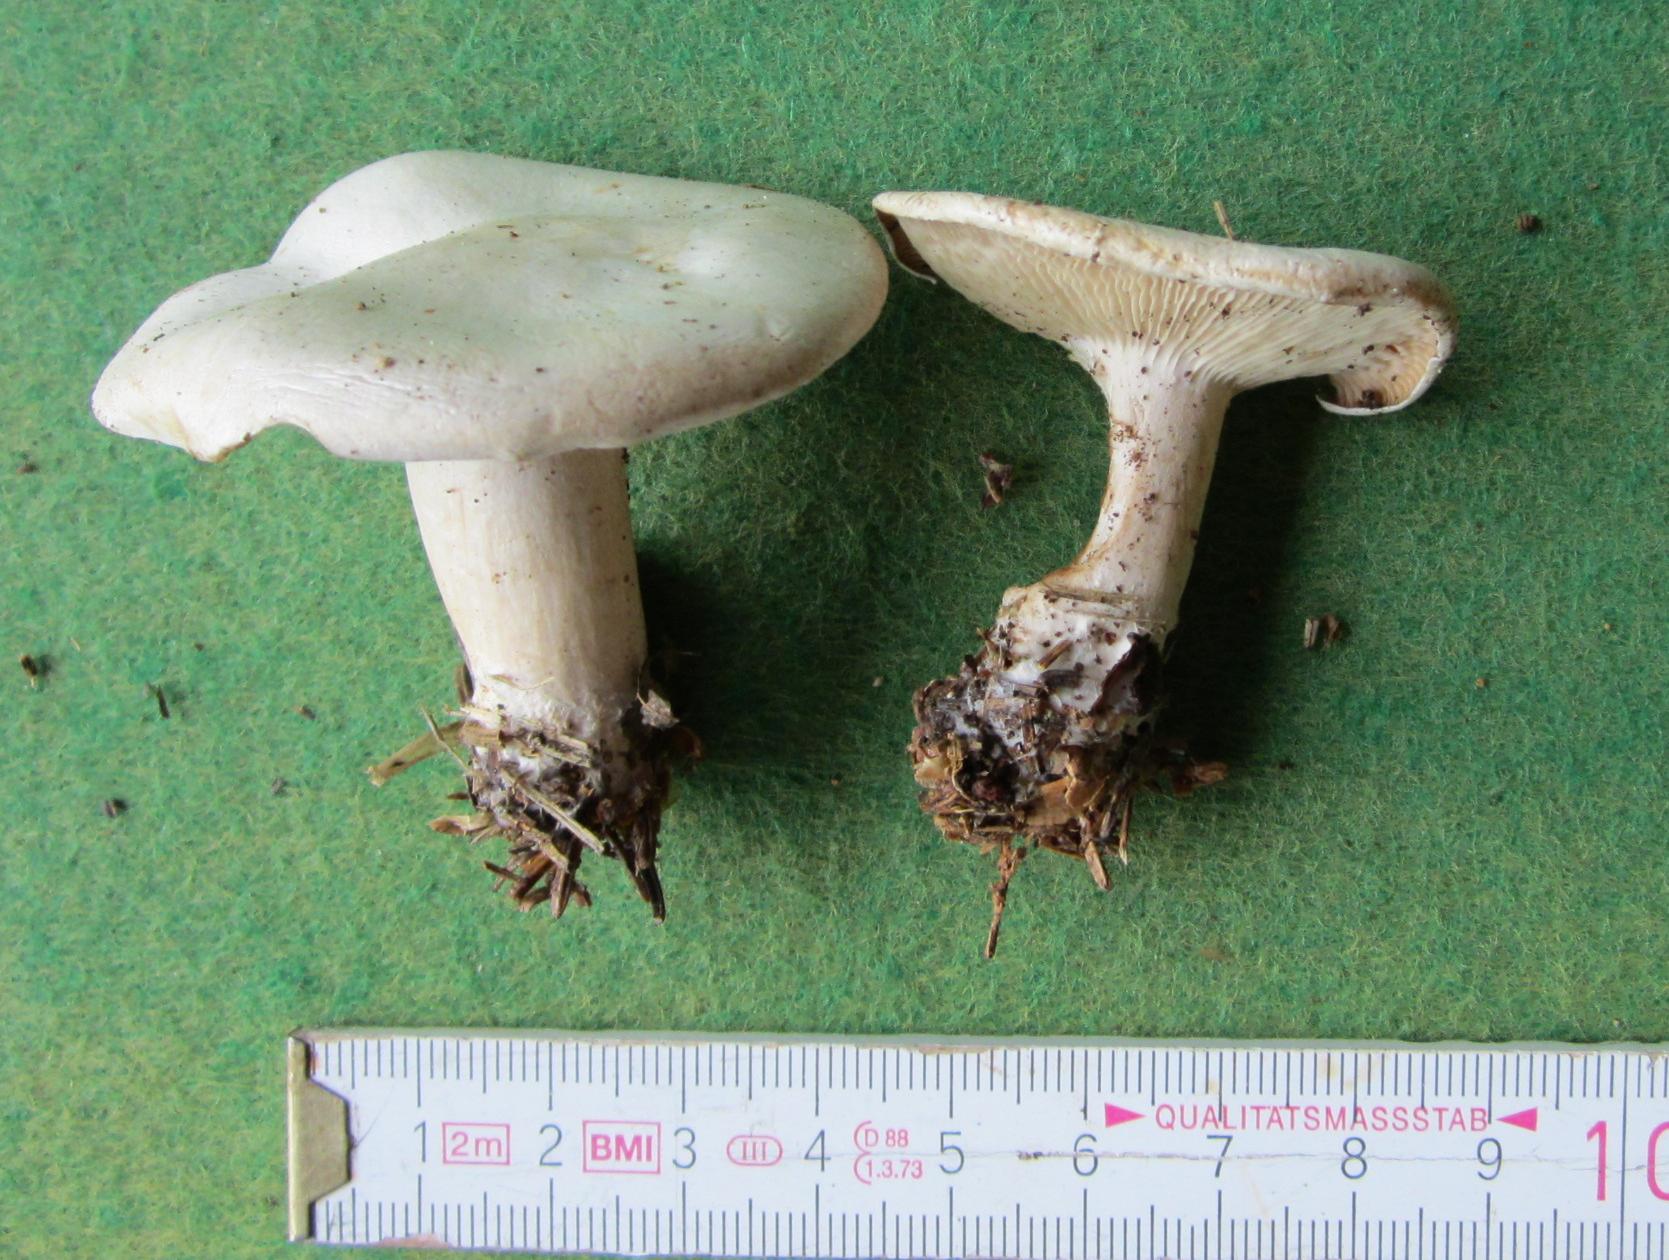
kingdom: Fungi
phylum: Basidiomycota
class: Agaricomycetes
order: Agaricales
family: Tricholomataceae
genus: Clitocybe
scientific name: Clitocybe phyllophila
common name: løv-tragthat
